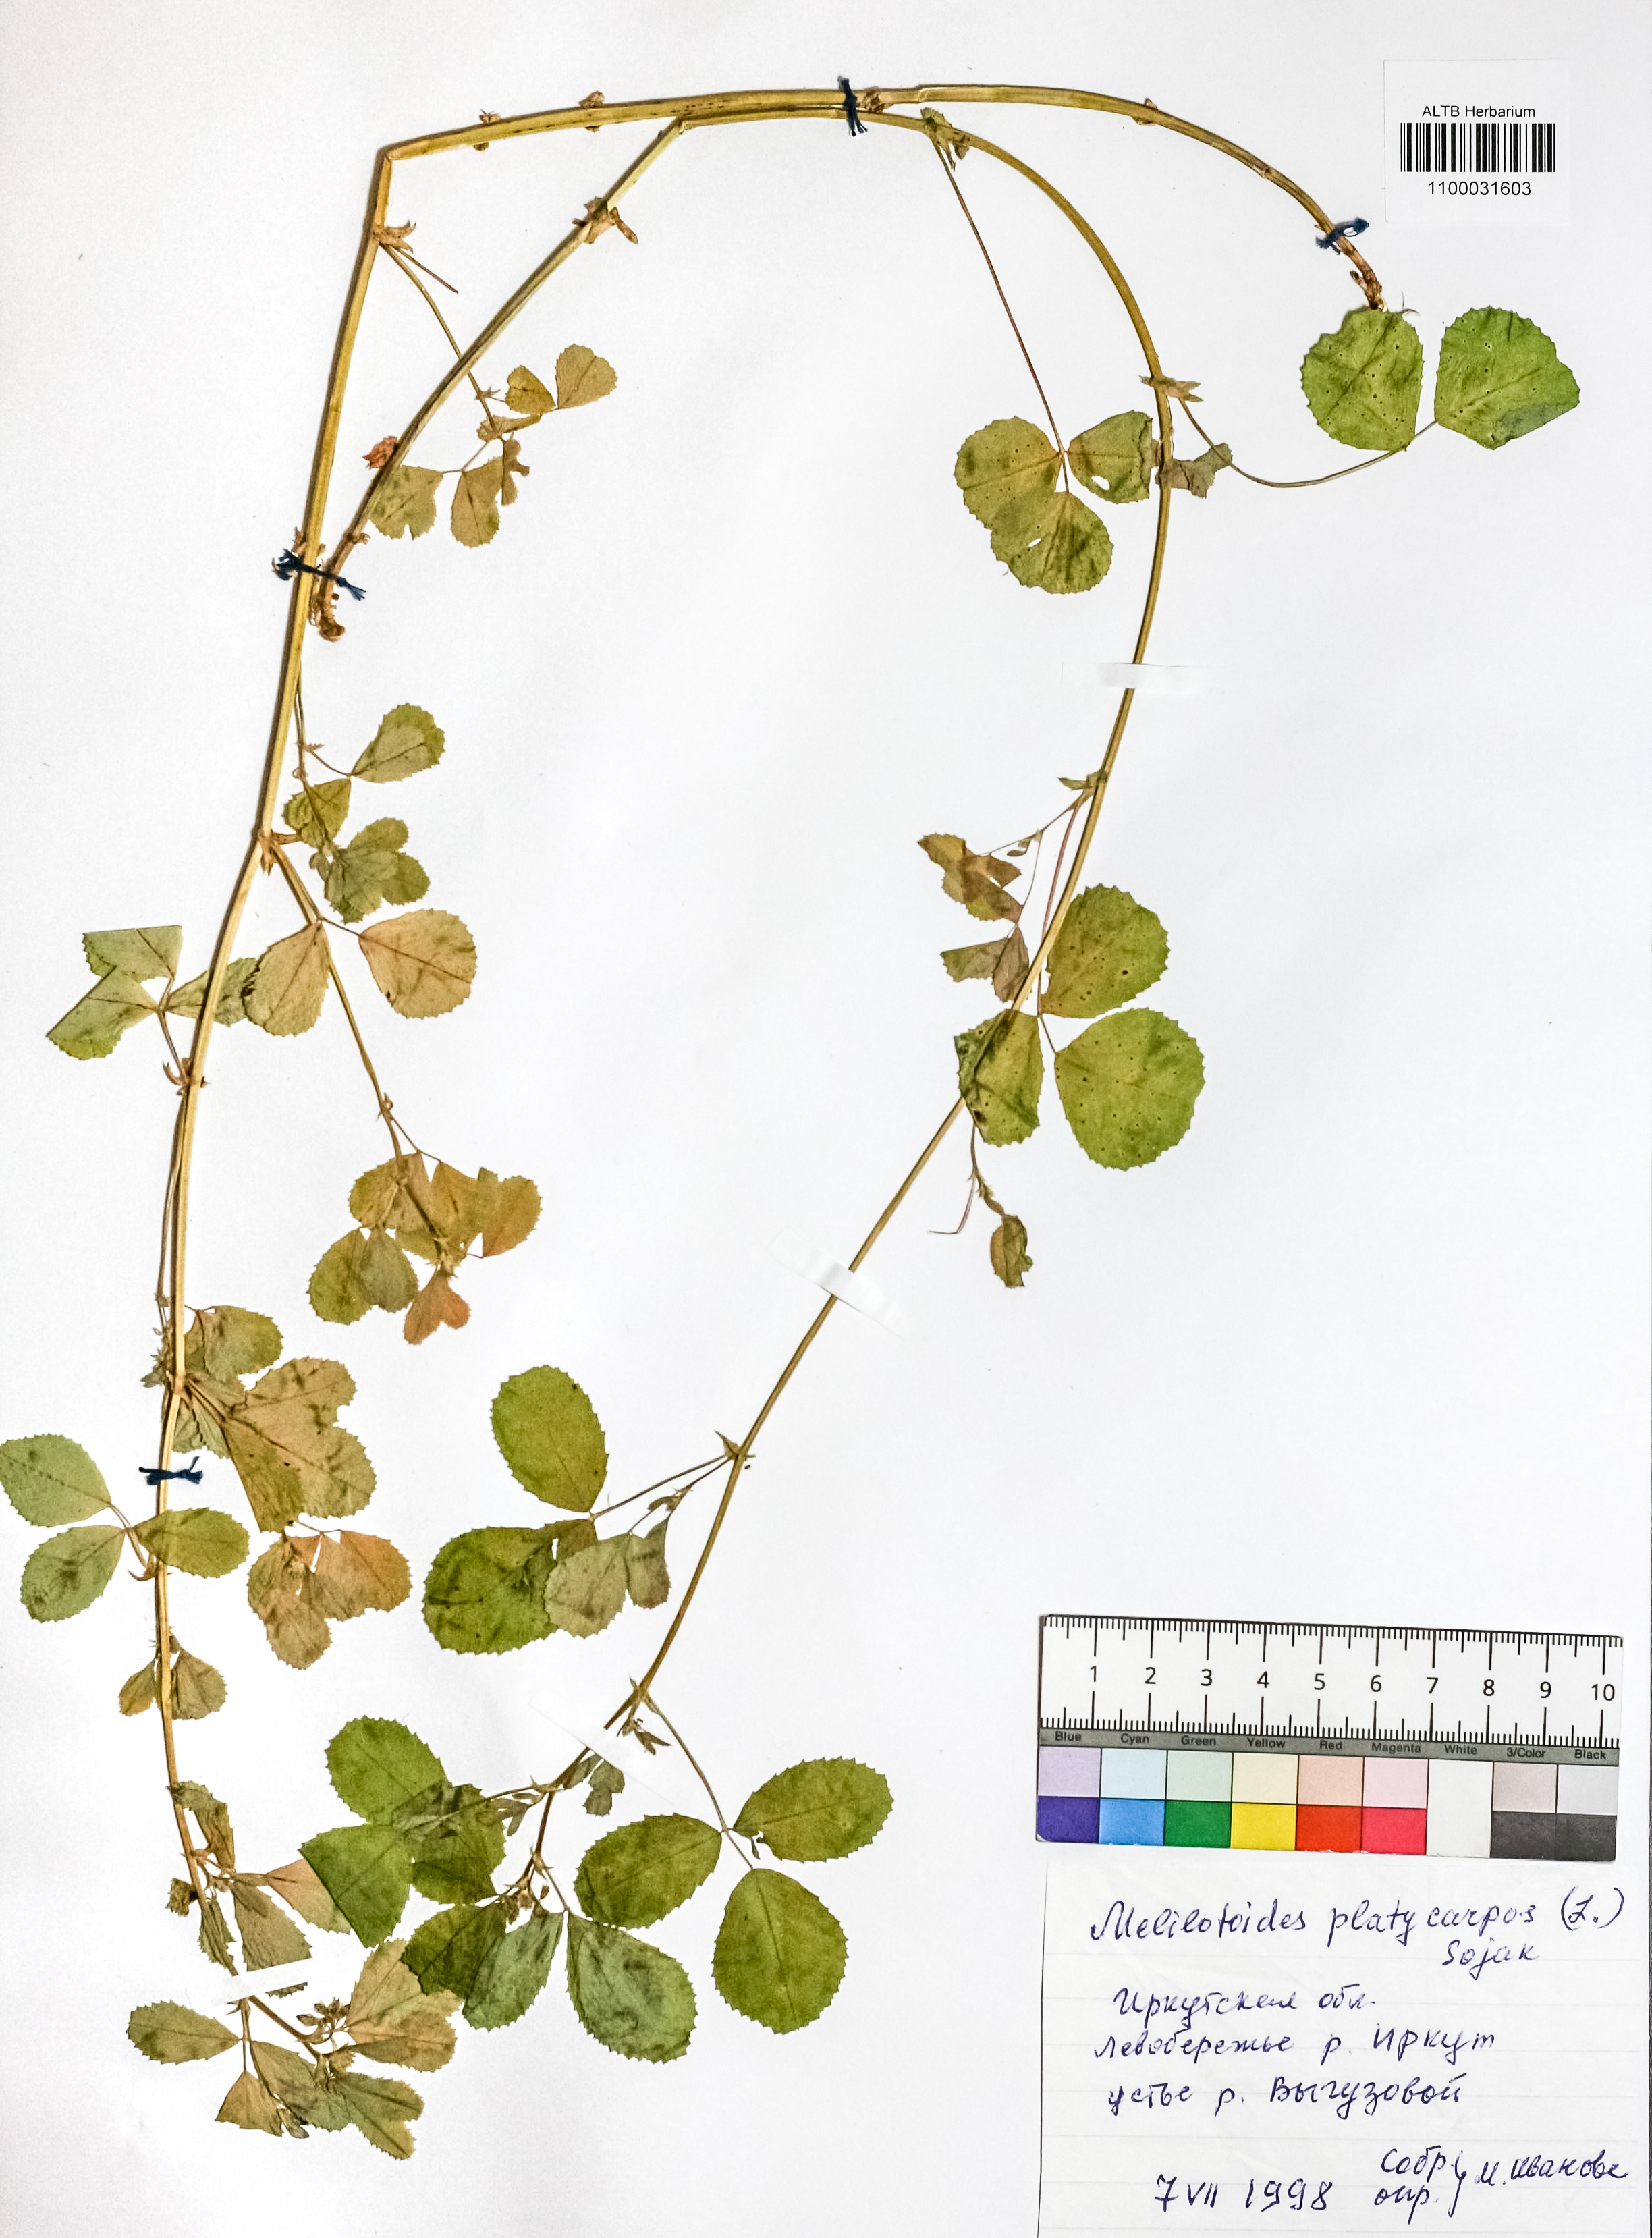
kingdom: Plantae
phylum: Tracheophyta
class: Magnoliopsida
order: Fabales
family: Fabaceae
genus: Medicago
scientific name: Medicago platycarpos
